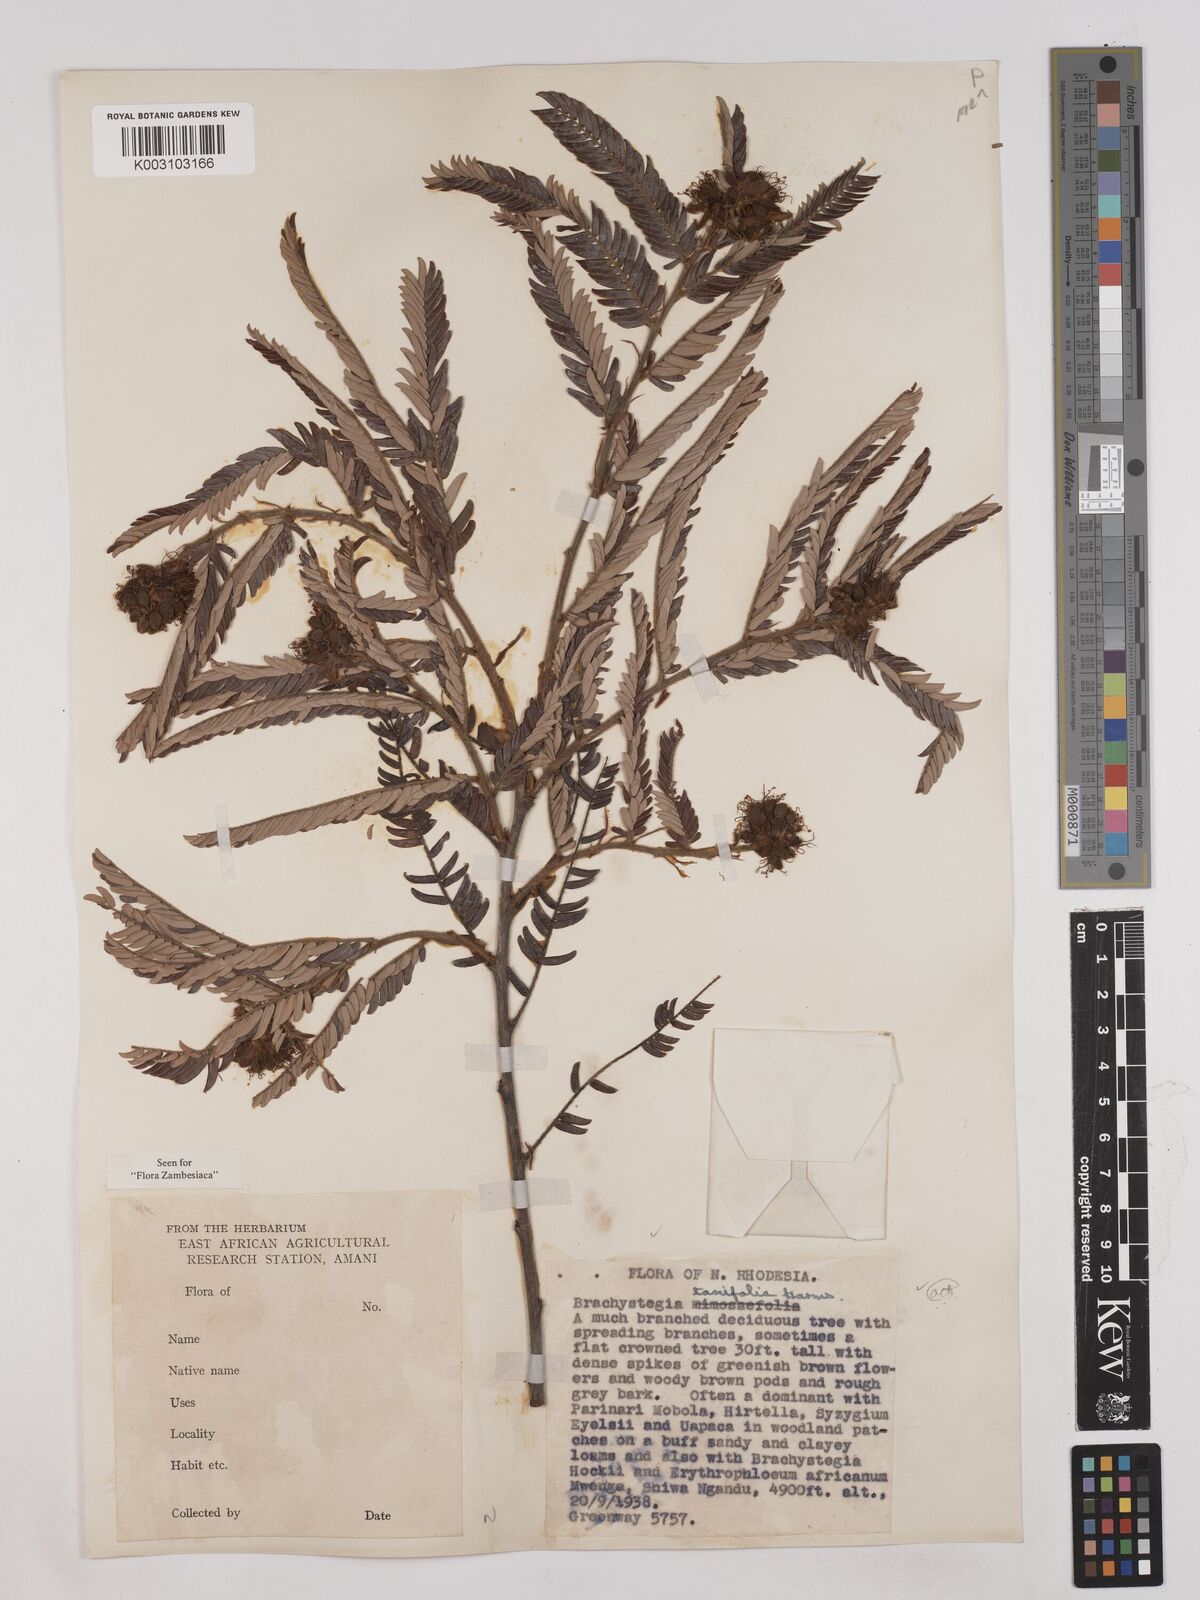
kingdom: Plantae
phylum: Tracheophyta
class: Magnoliopsida
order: Fabales
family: Fabaceae
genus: Brachystegia
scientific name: Brachystegia taxifolia
